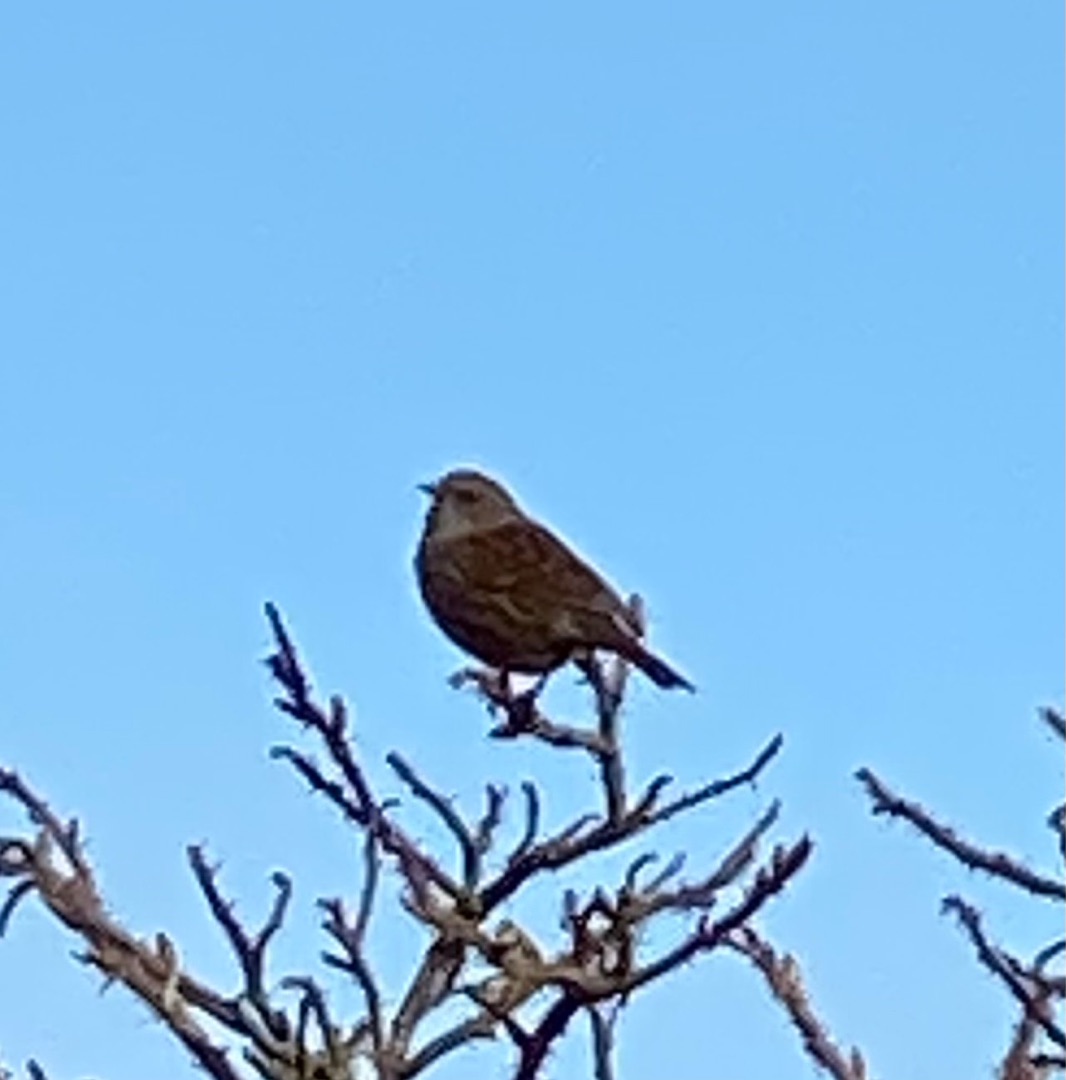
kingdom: Animalia
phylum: Chordata
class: Aves
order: Passeriformes
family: Prunellidae
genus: Prunella
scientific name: Prunella modularis
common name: Jernspurv
